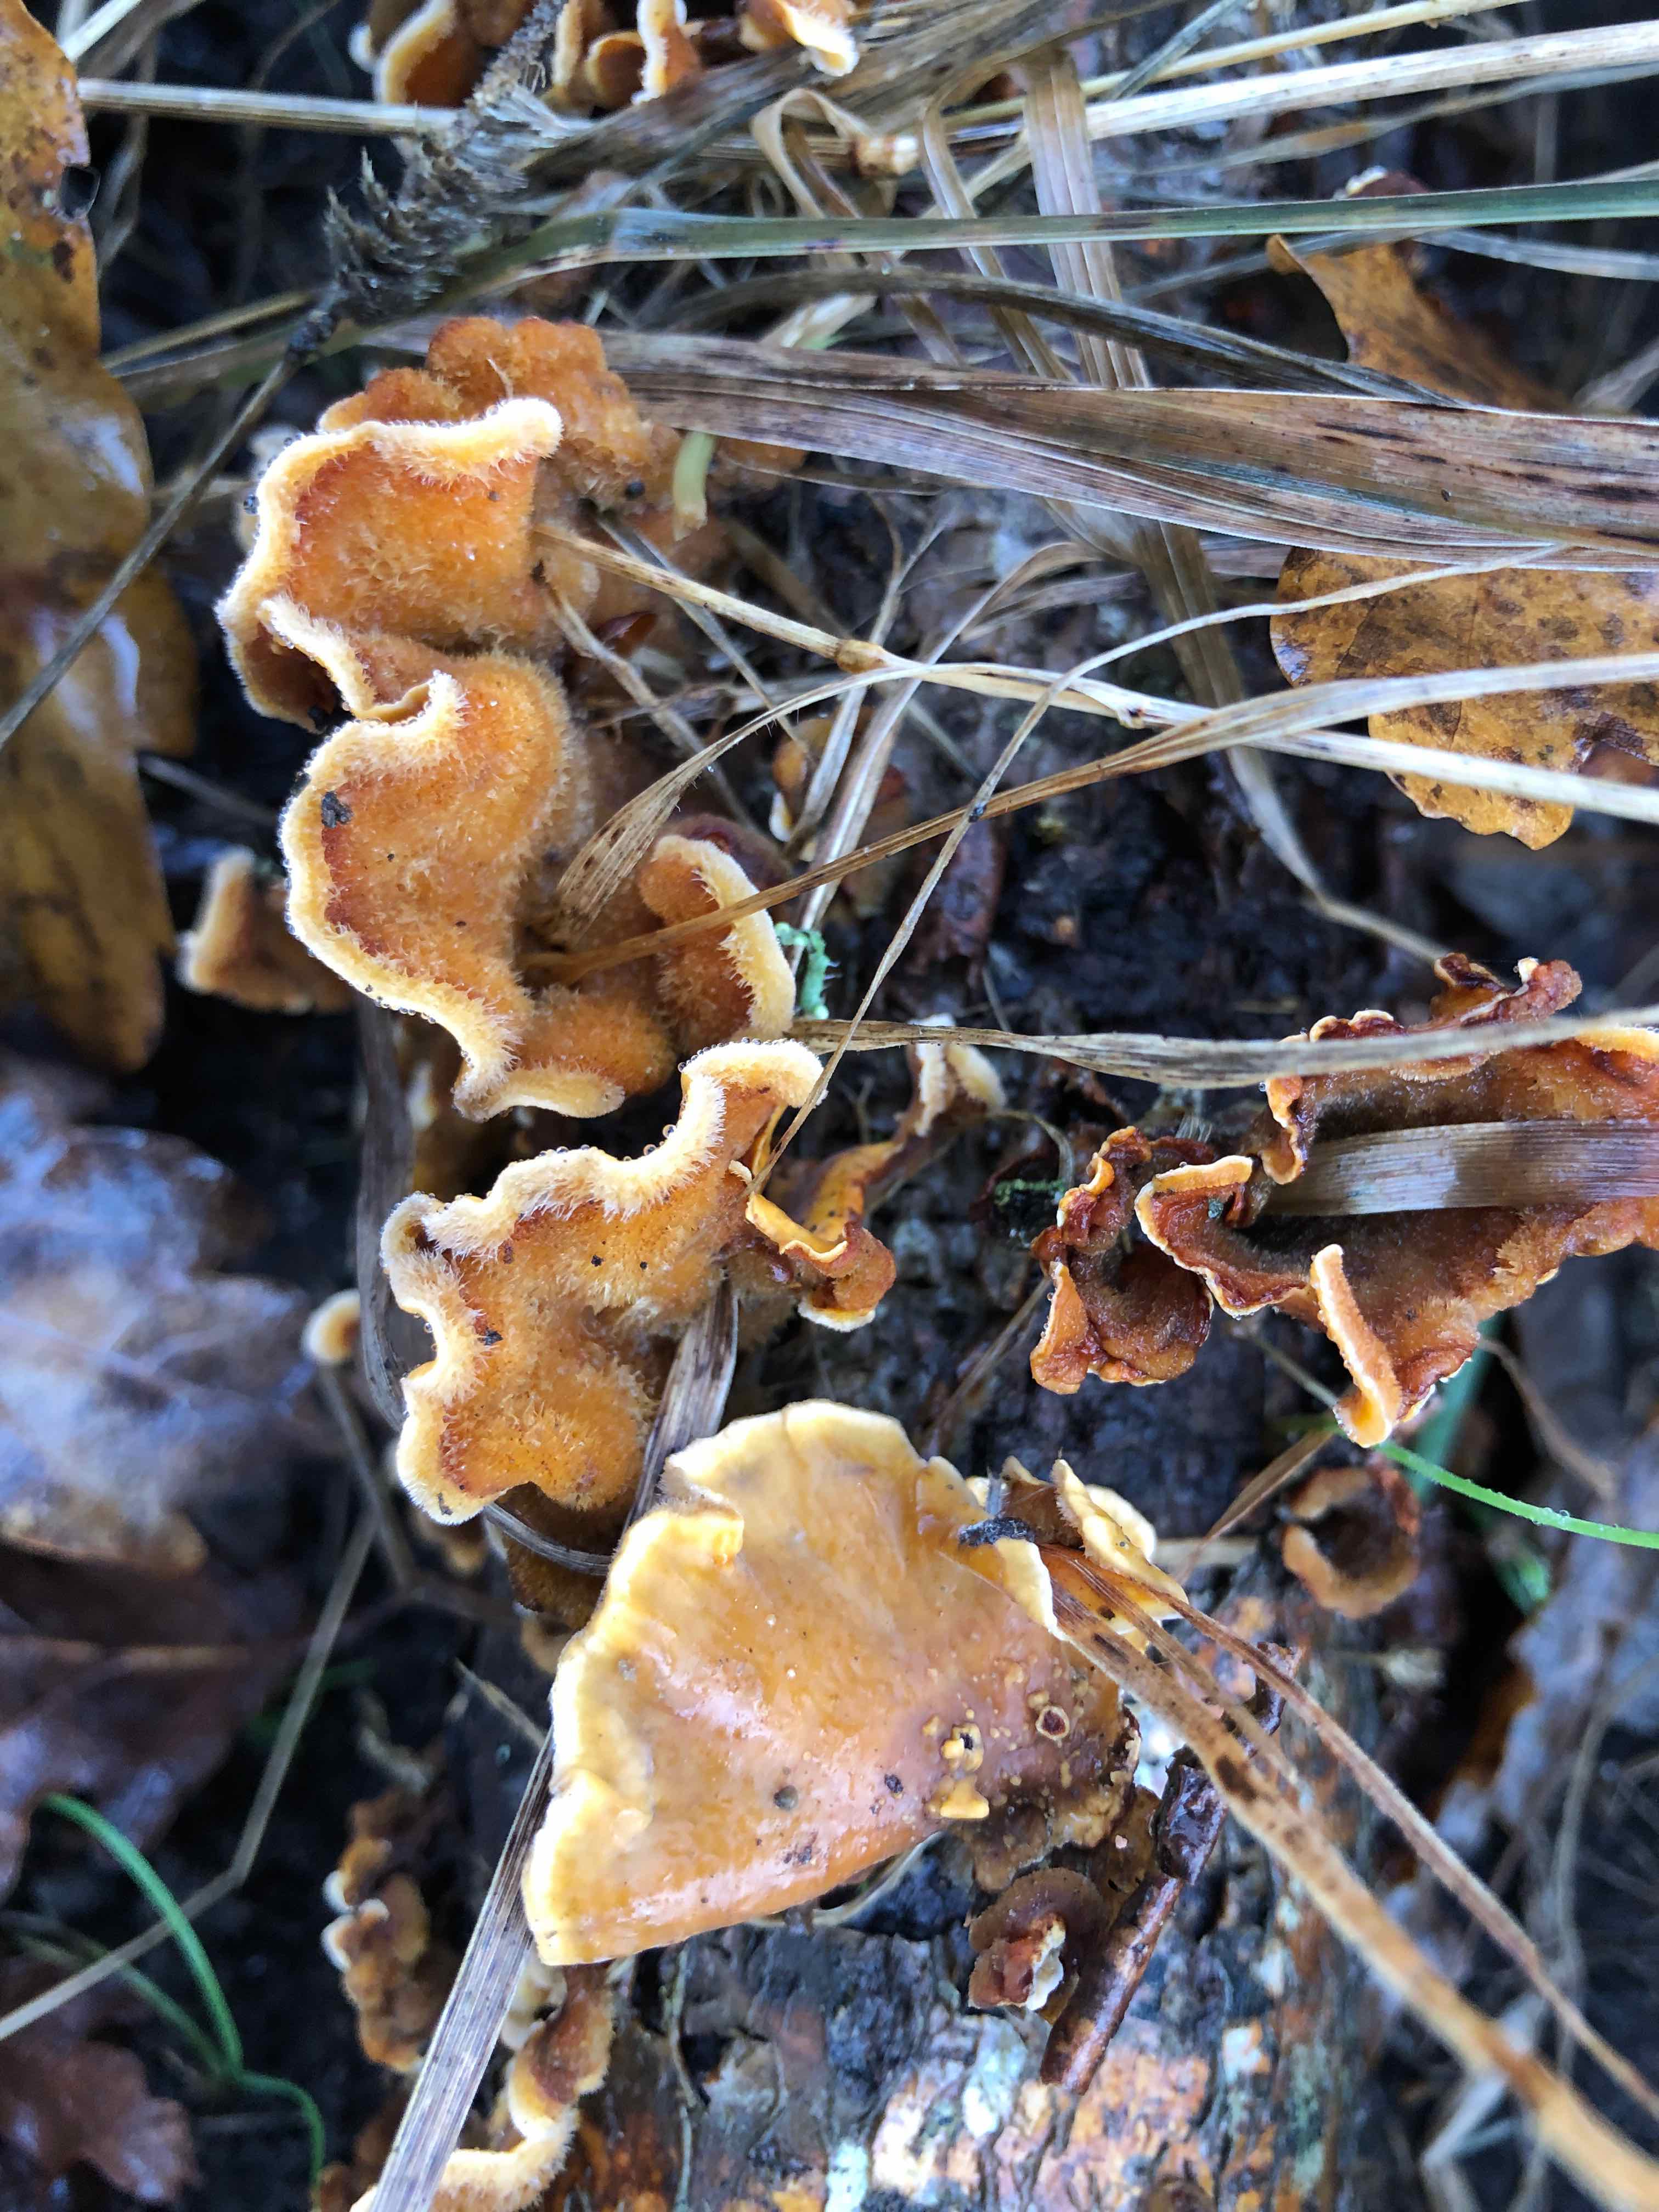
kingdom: Fungi
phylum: Basidiomycota
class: Agaricomycetes
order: Russulales
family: Stereaceae
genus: Stereum
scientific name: Stereum hirsutum
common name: håret lædersvamp
